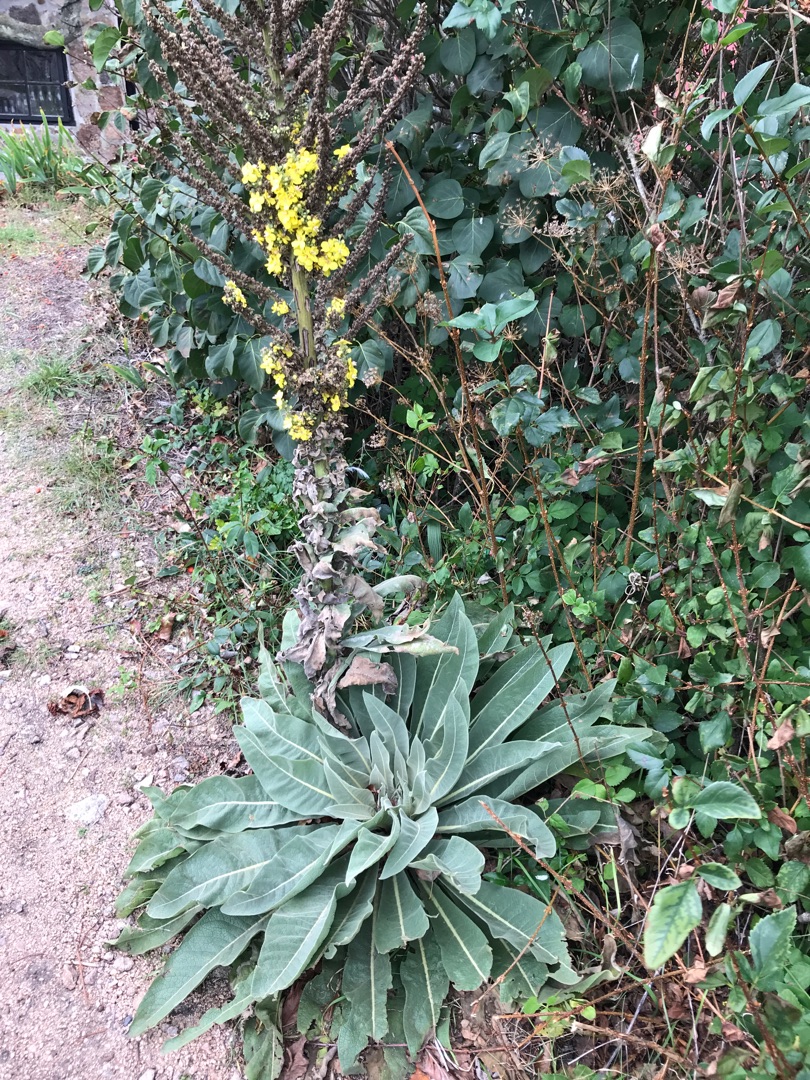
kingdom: Plantae
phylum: Tracheophyta
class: Magnoliopsida
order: Lamiales
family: Scrophulariaceae
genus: Verbascum
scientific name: Verbascum speciosum
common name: Kandelaber-kongelys
